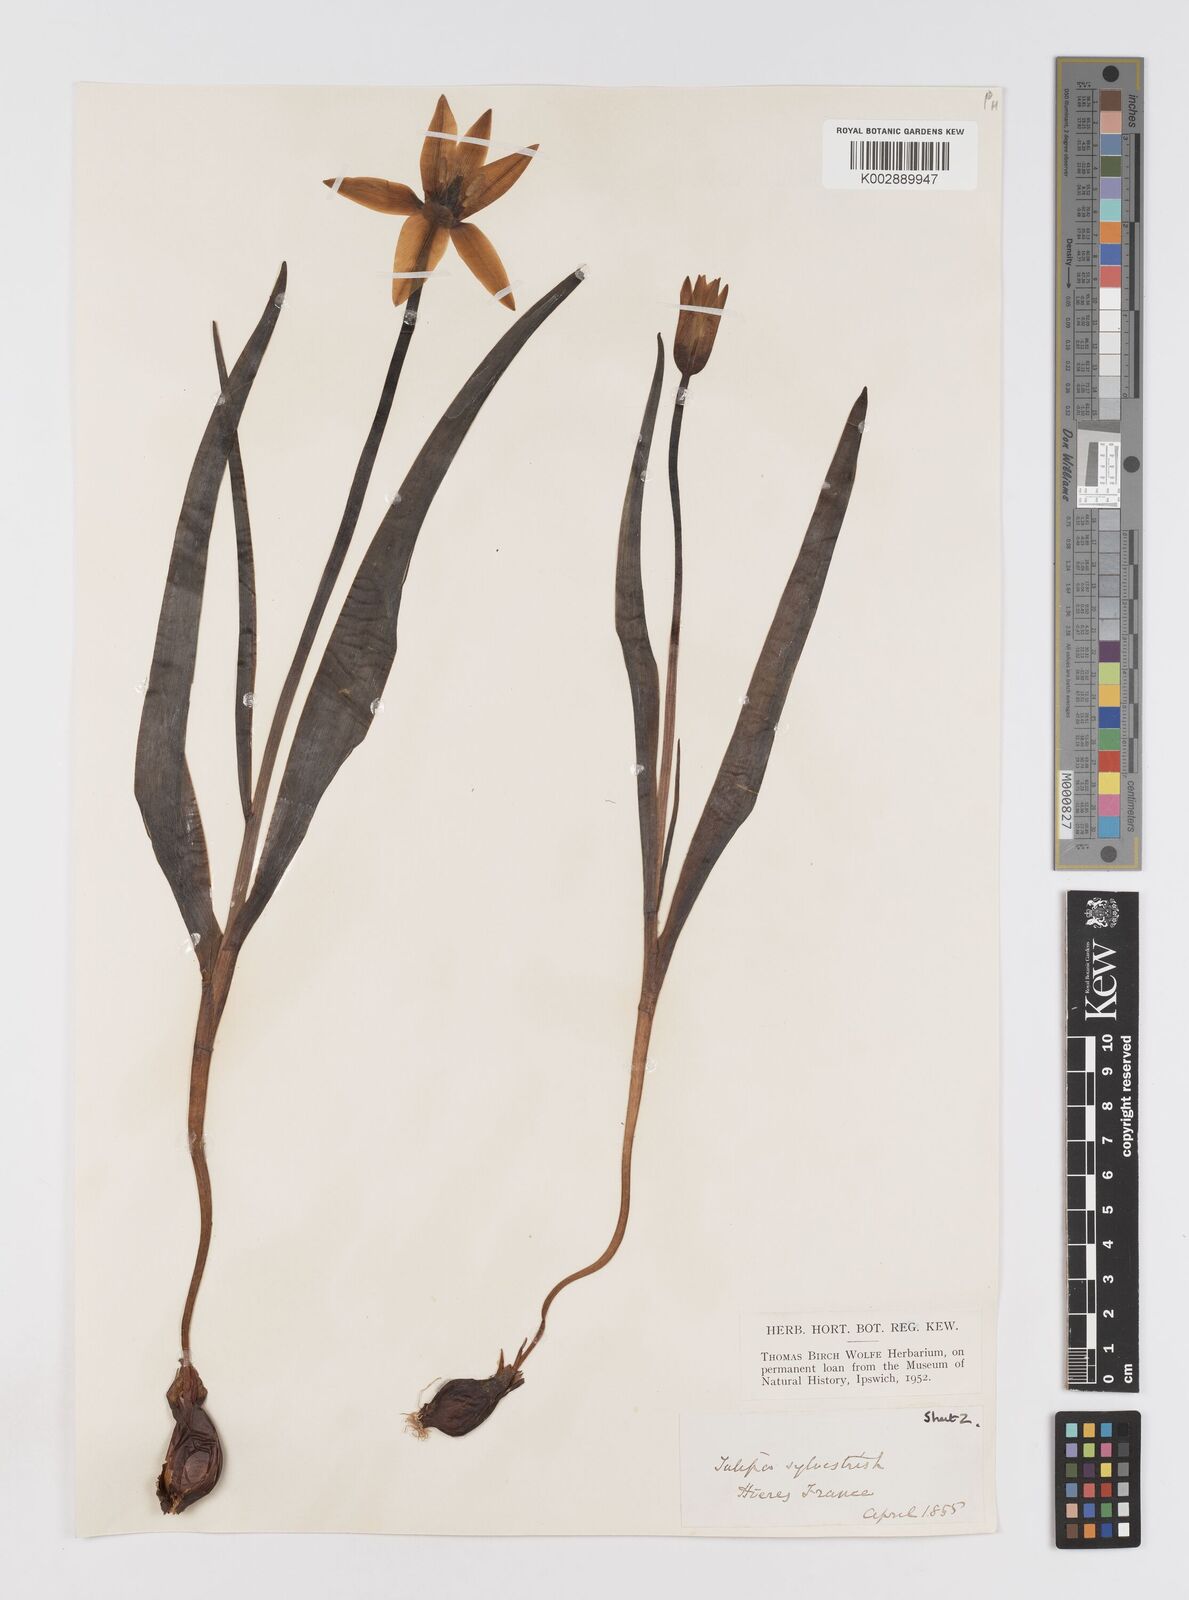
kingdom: Plantae
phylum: Tracheophyta
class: Liliopsida
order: Liliales
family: Liliaceae
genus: Tulipa
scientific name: Tulipa sylvestris
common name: Wild tulip
